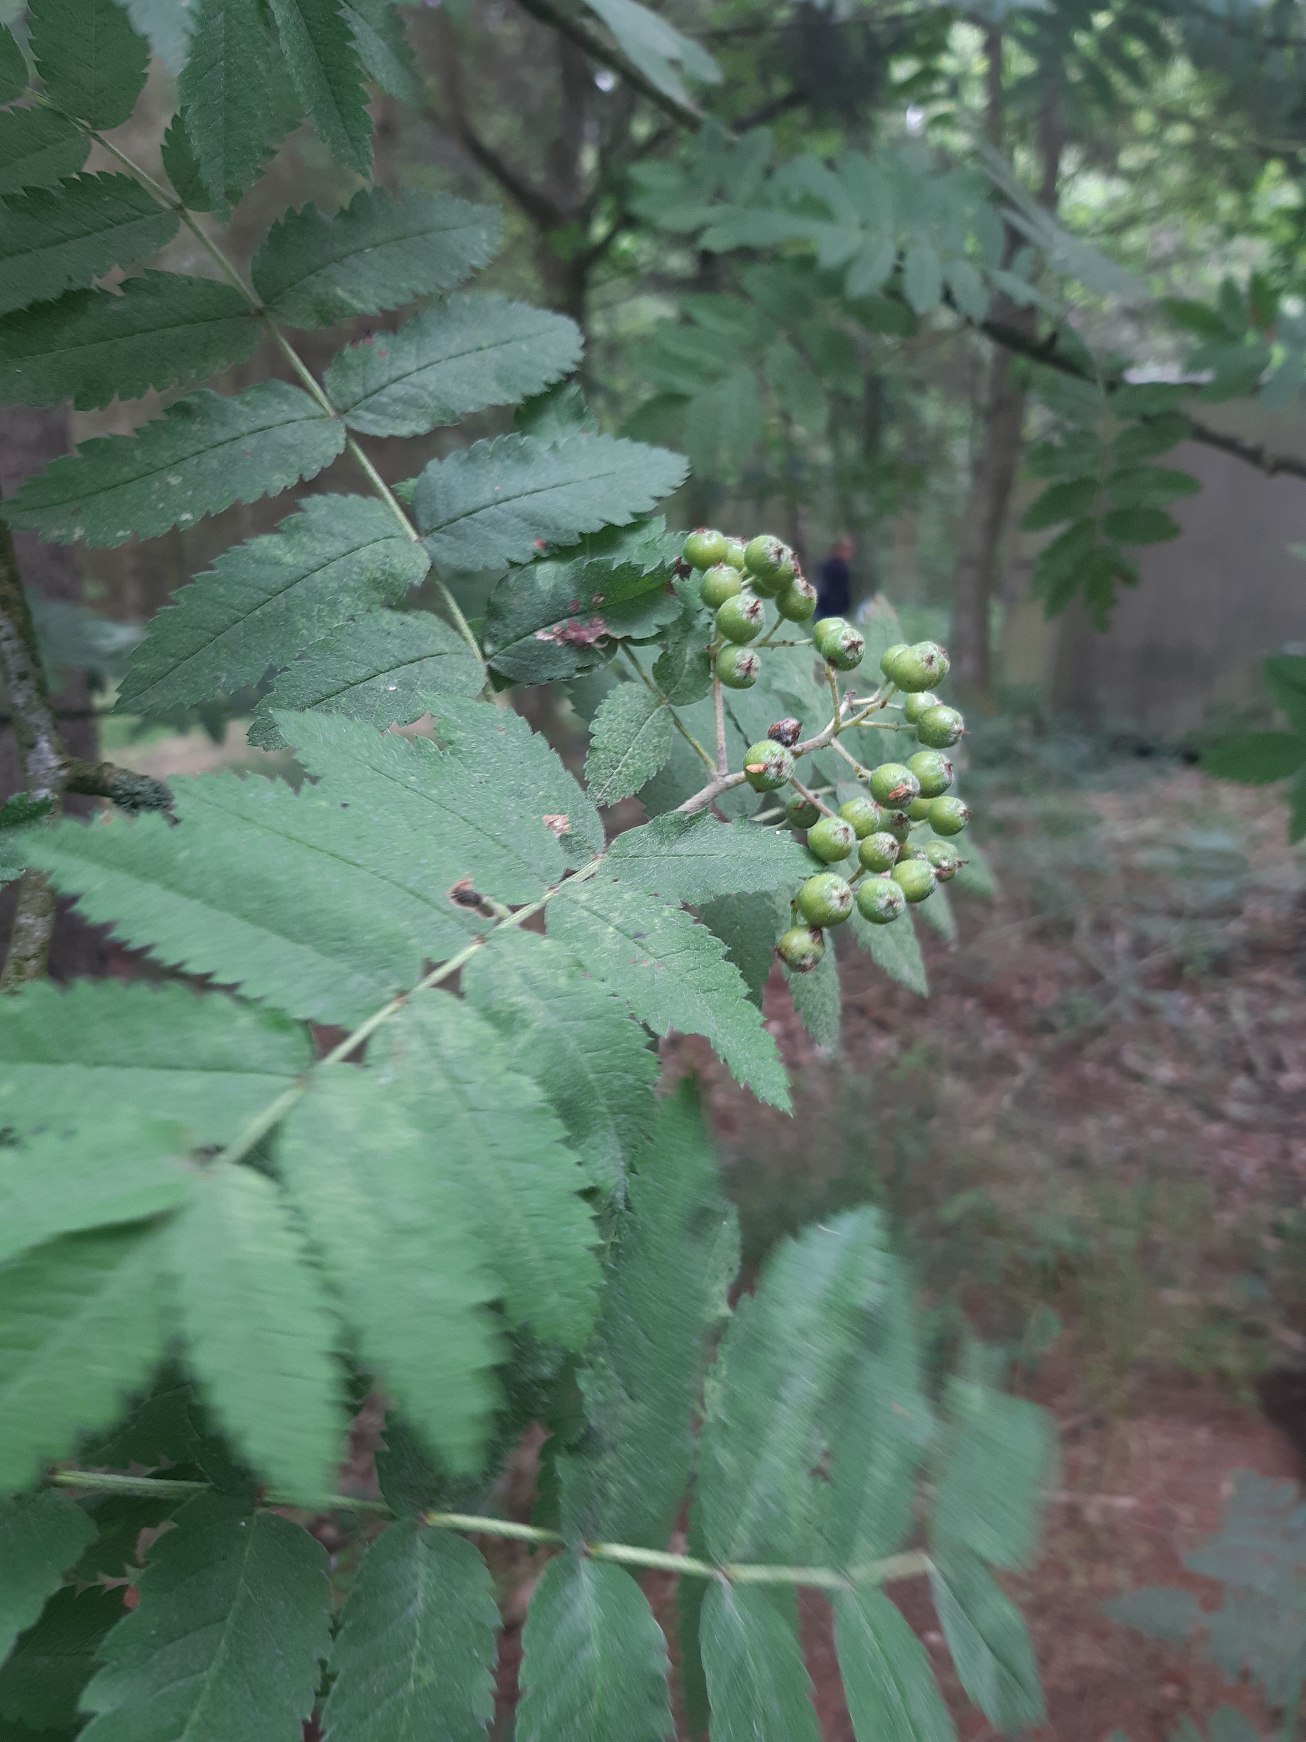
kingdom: Plantae
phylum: Tracheophyta
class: Magnoliopsida
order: Rosales
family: Rosaceae
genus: Sorbus
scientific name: Sorbus aucuparia
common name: Almindelig røn
